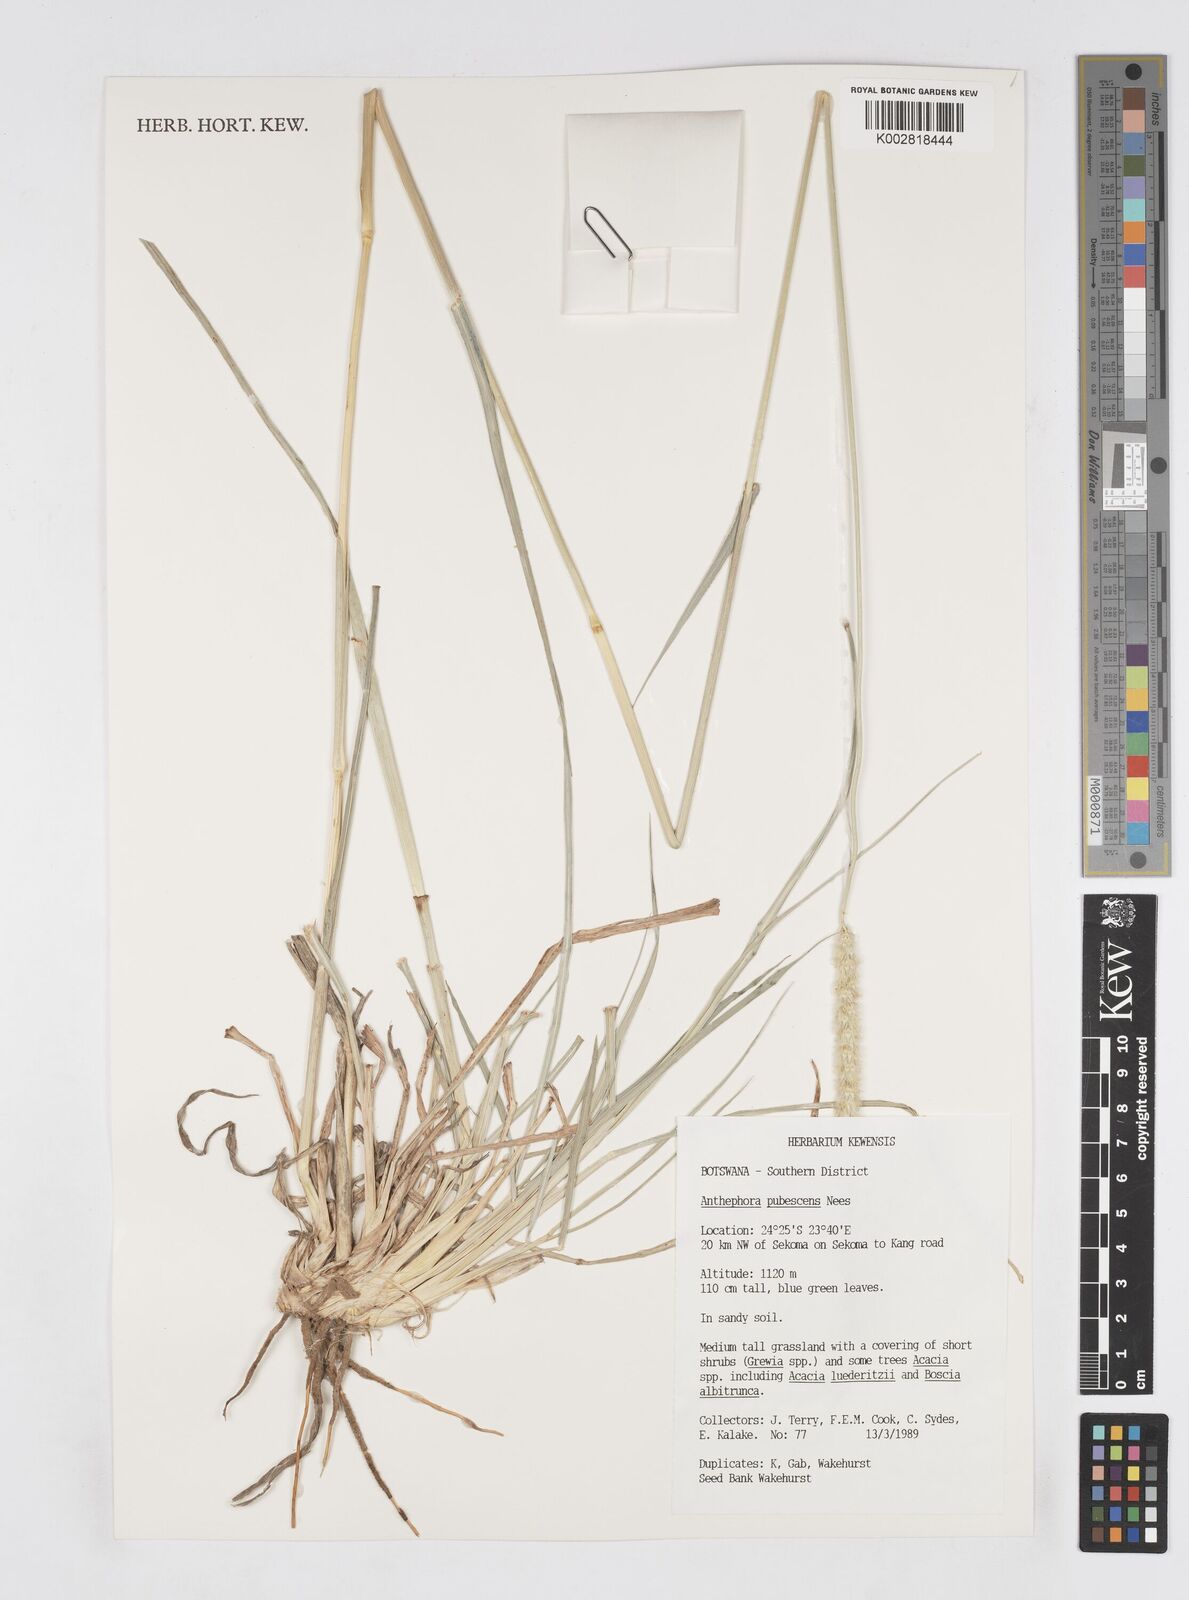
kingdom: Plantae
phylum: Tracheophyta
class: Liliopsida
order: Poales
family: Poaceae
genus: Anthephora
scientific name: Anthephora pubescens
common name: Wool grass
